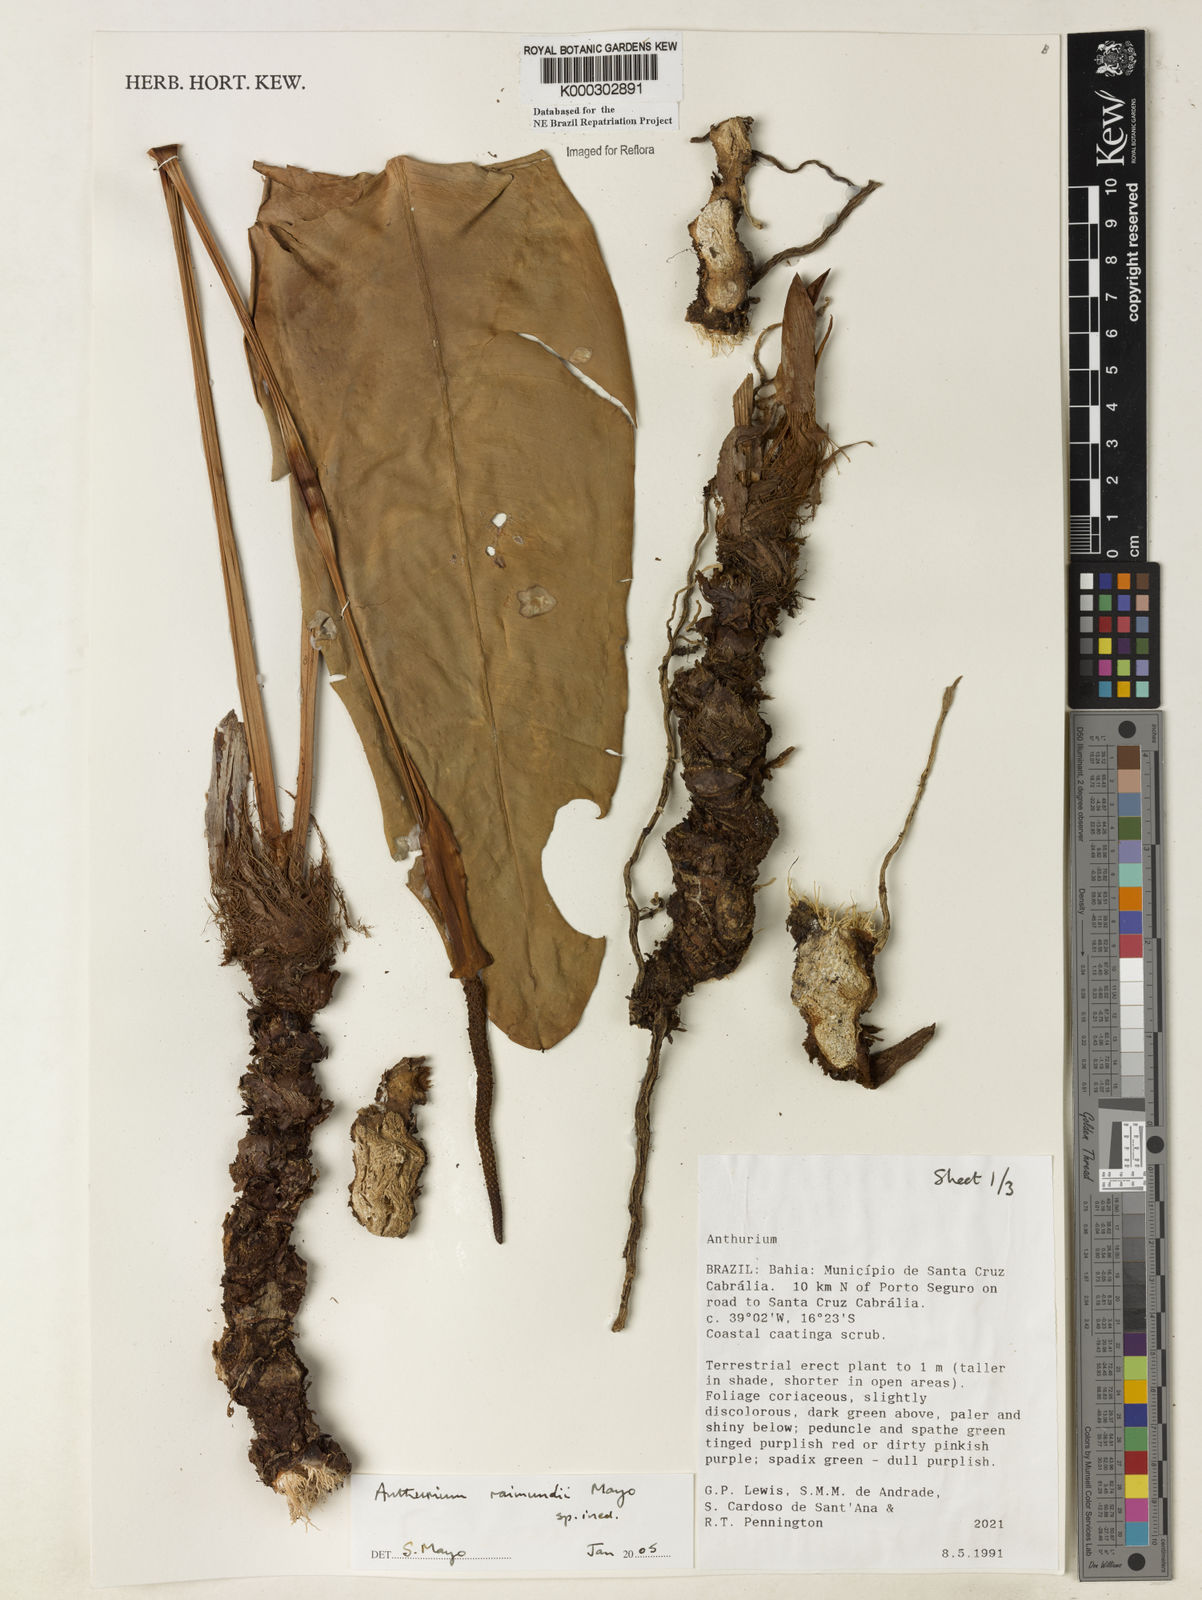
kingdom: Plantae
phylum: Tracheophyta
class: Liliopsida
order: Alismatales
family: Araceae
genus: Anthurium
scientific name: Anthurium raimundii
